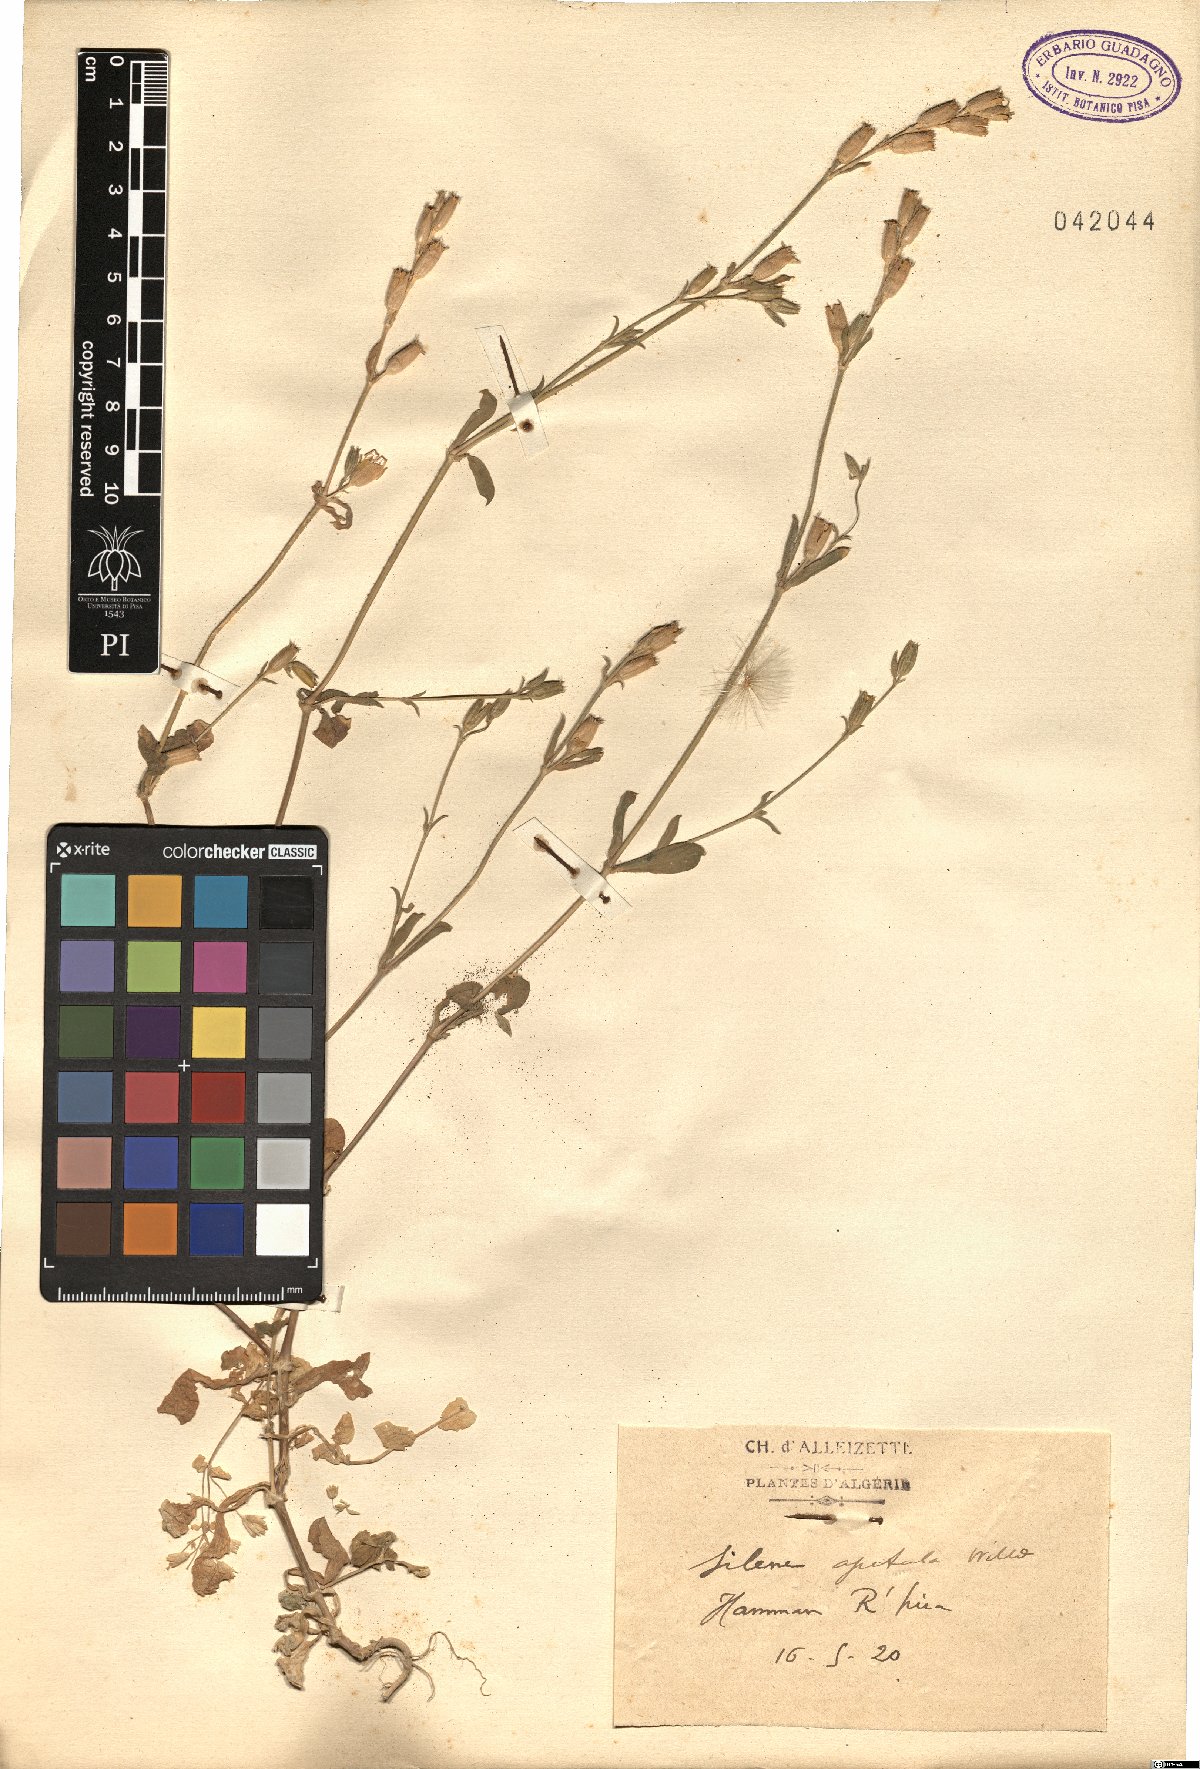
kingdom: Plantae
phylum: Tracheophyta
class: Magnoliopsida
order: Caryophyllales
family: Caryophyllaceae
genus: Silene
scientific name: Silene apetala
